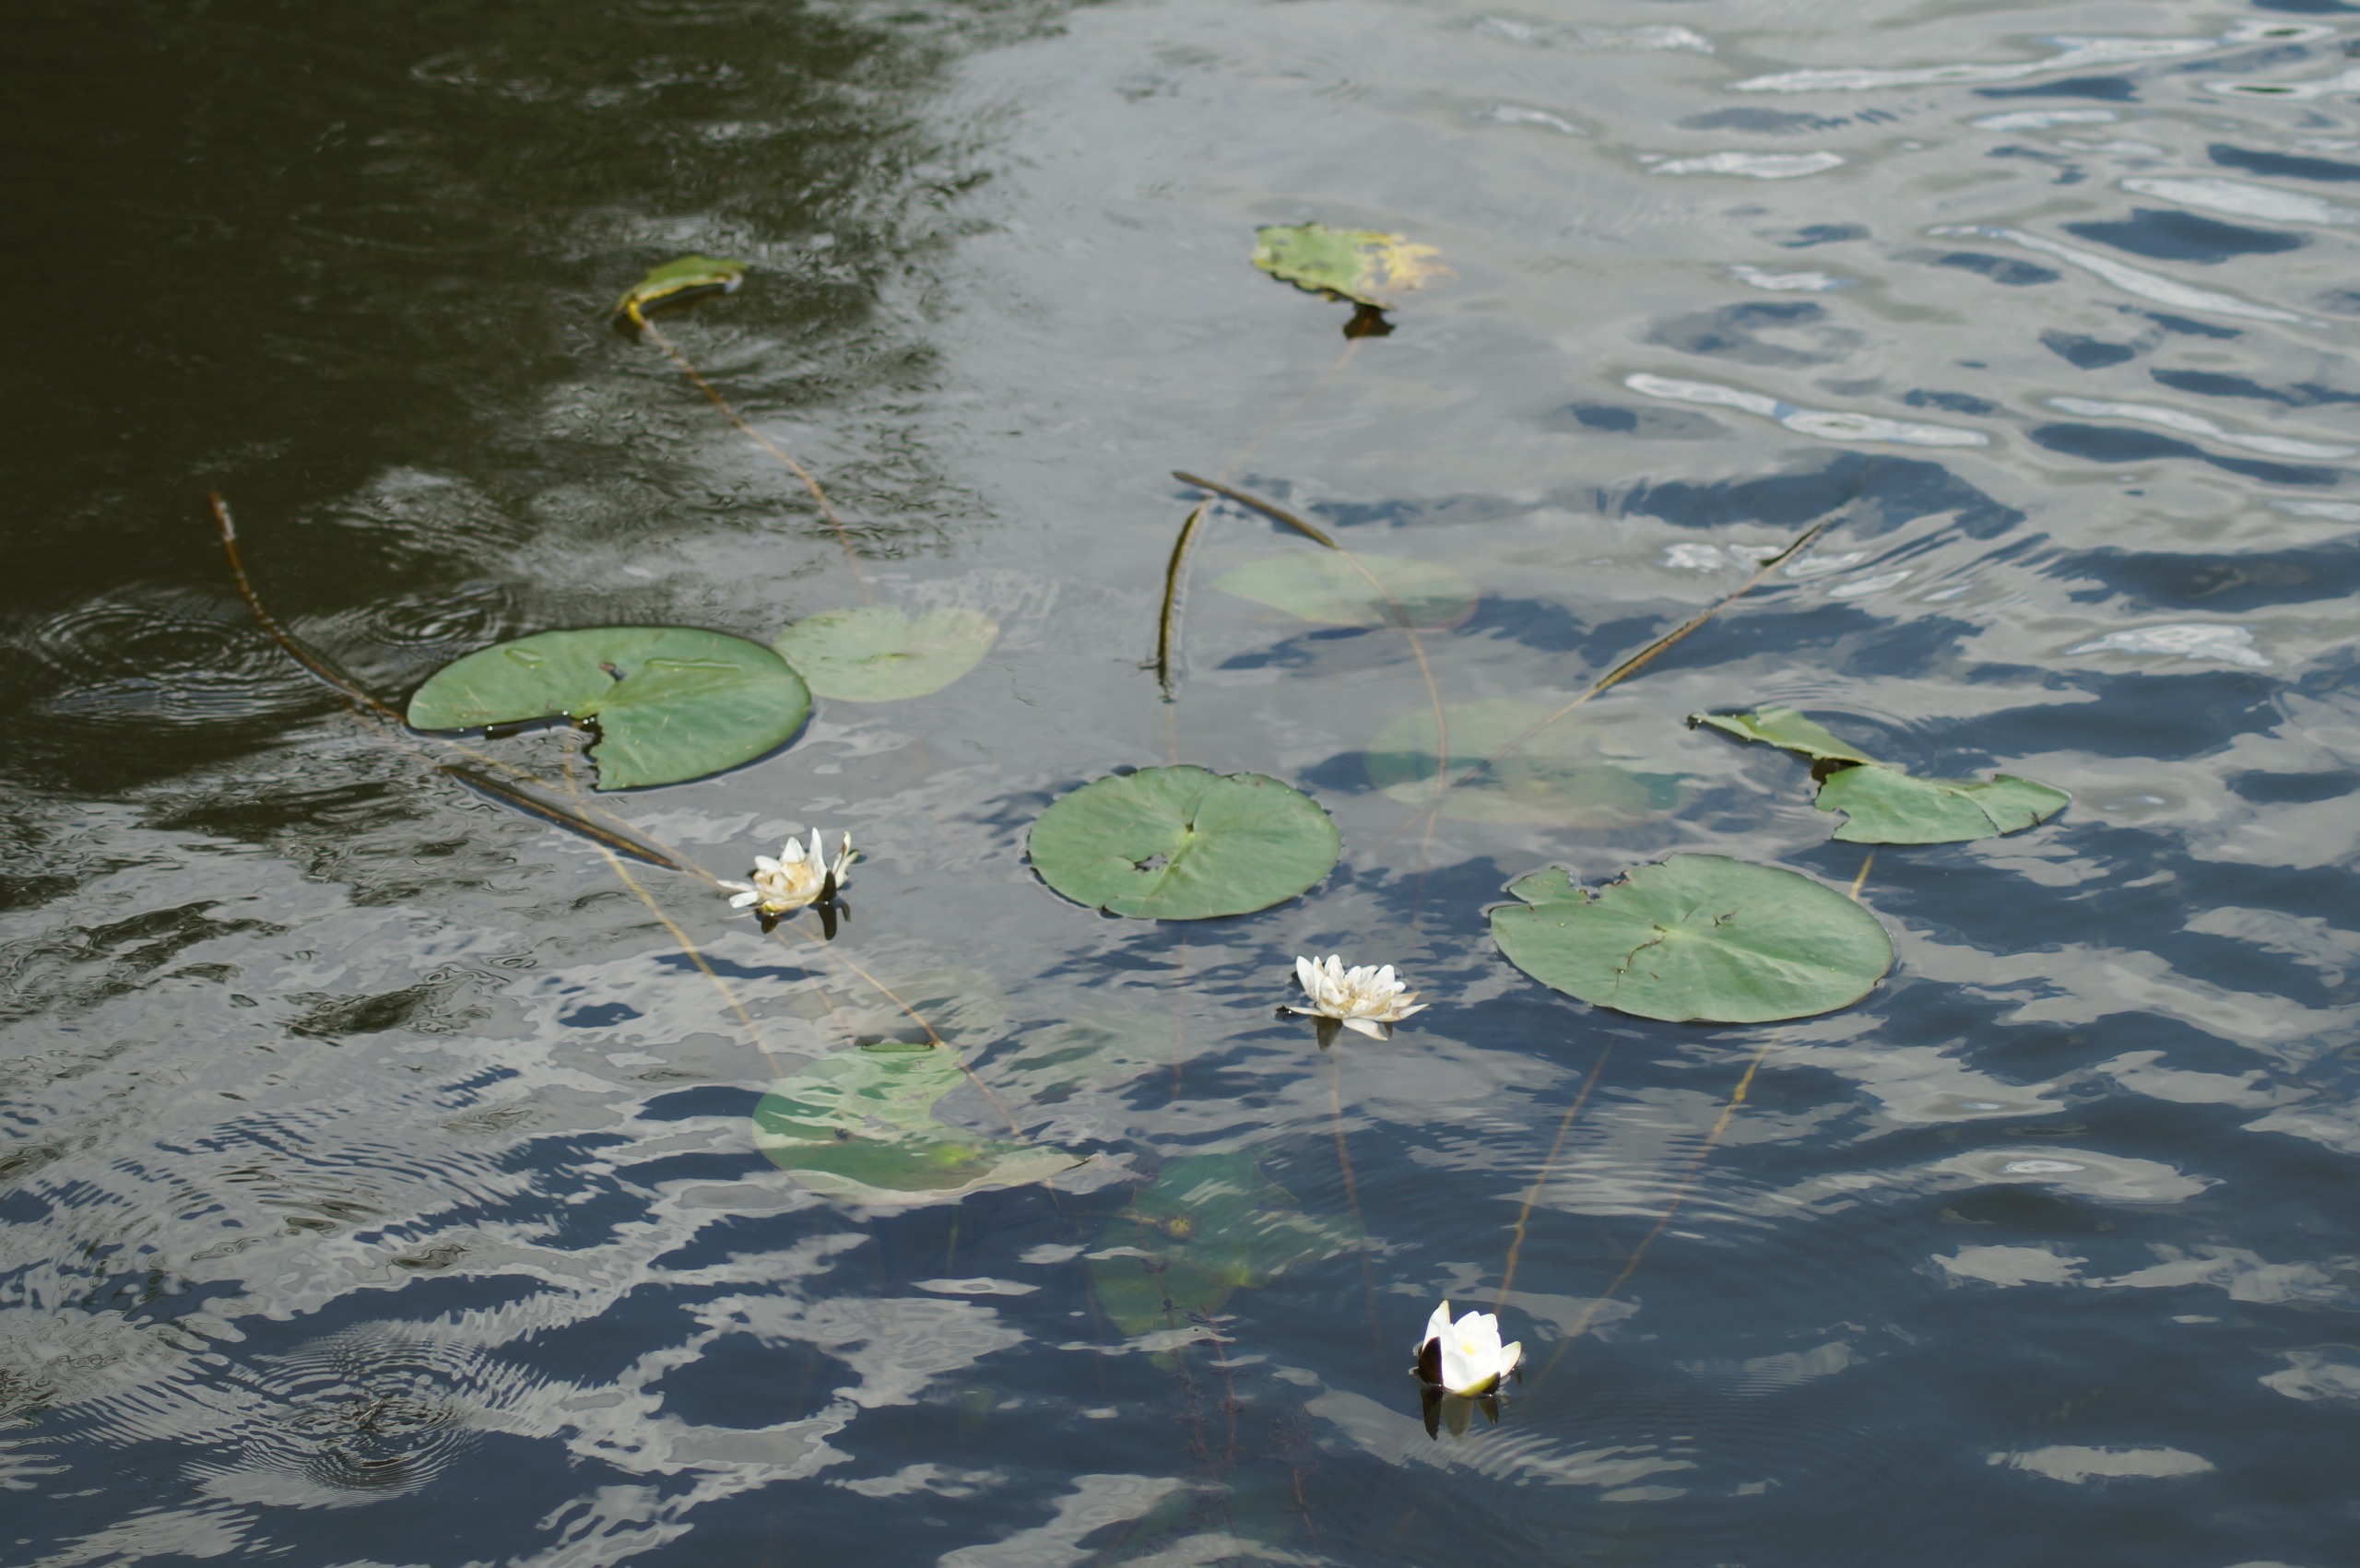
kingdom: Plantae
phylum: Tracheophyta
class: Magnoliopsida
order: Nymphaeales
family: Nymphaeaceae
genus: Nymphaea
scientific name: Nymphaea alba
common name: Hvid åkande
